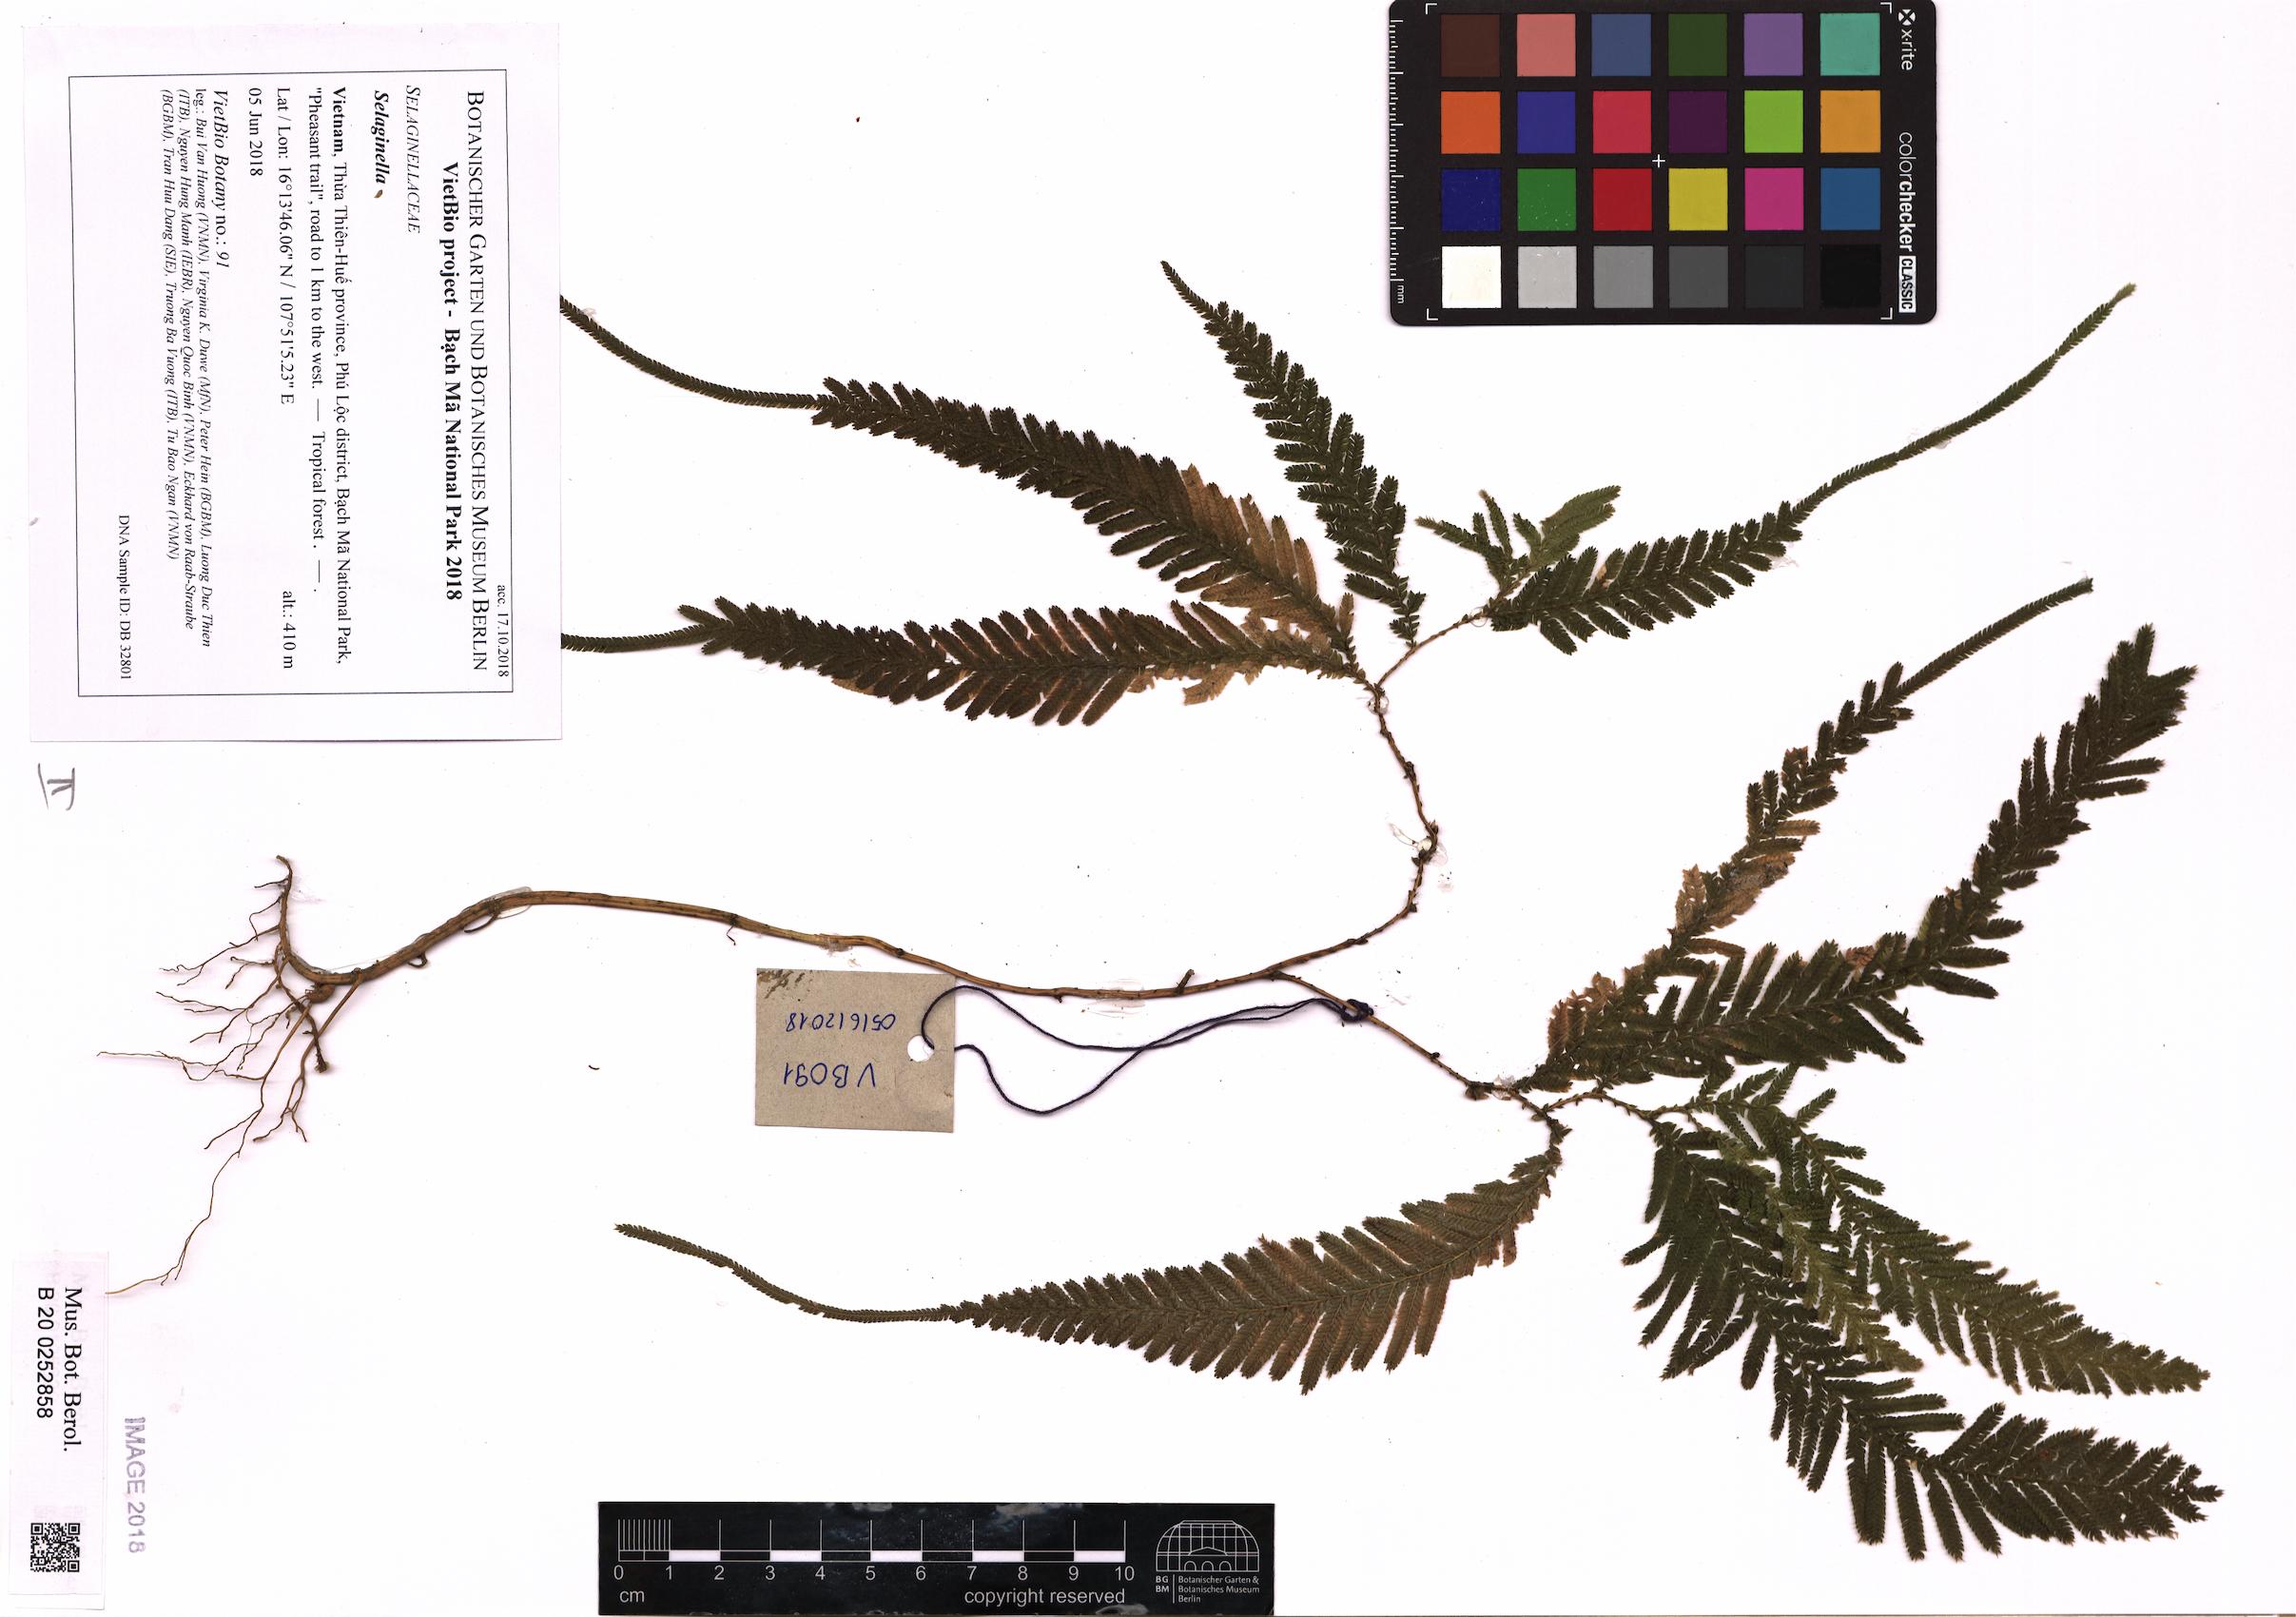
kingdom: Plantae
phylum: Tracheophyta
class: Lycopodiopsida
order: Selaginellales
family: Selaginellaceae
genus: Selaginella
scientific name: Selaginella
